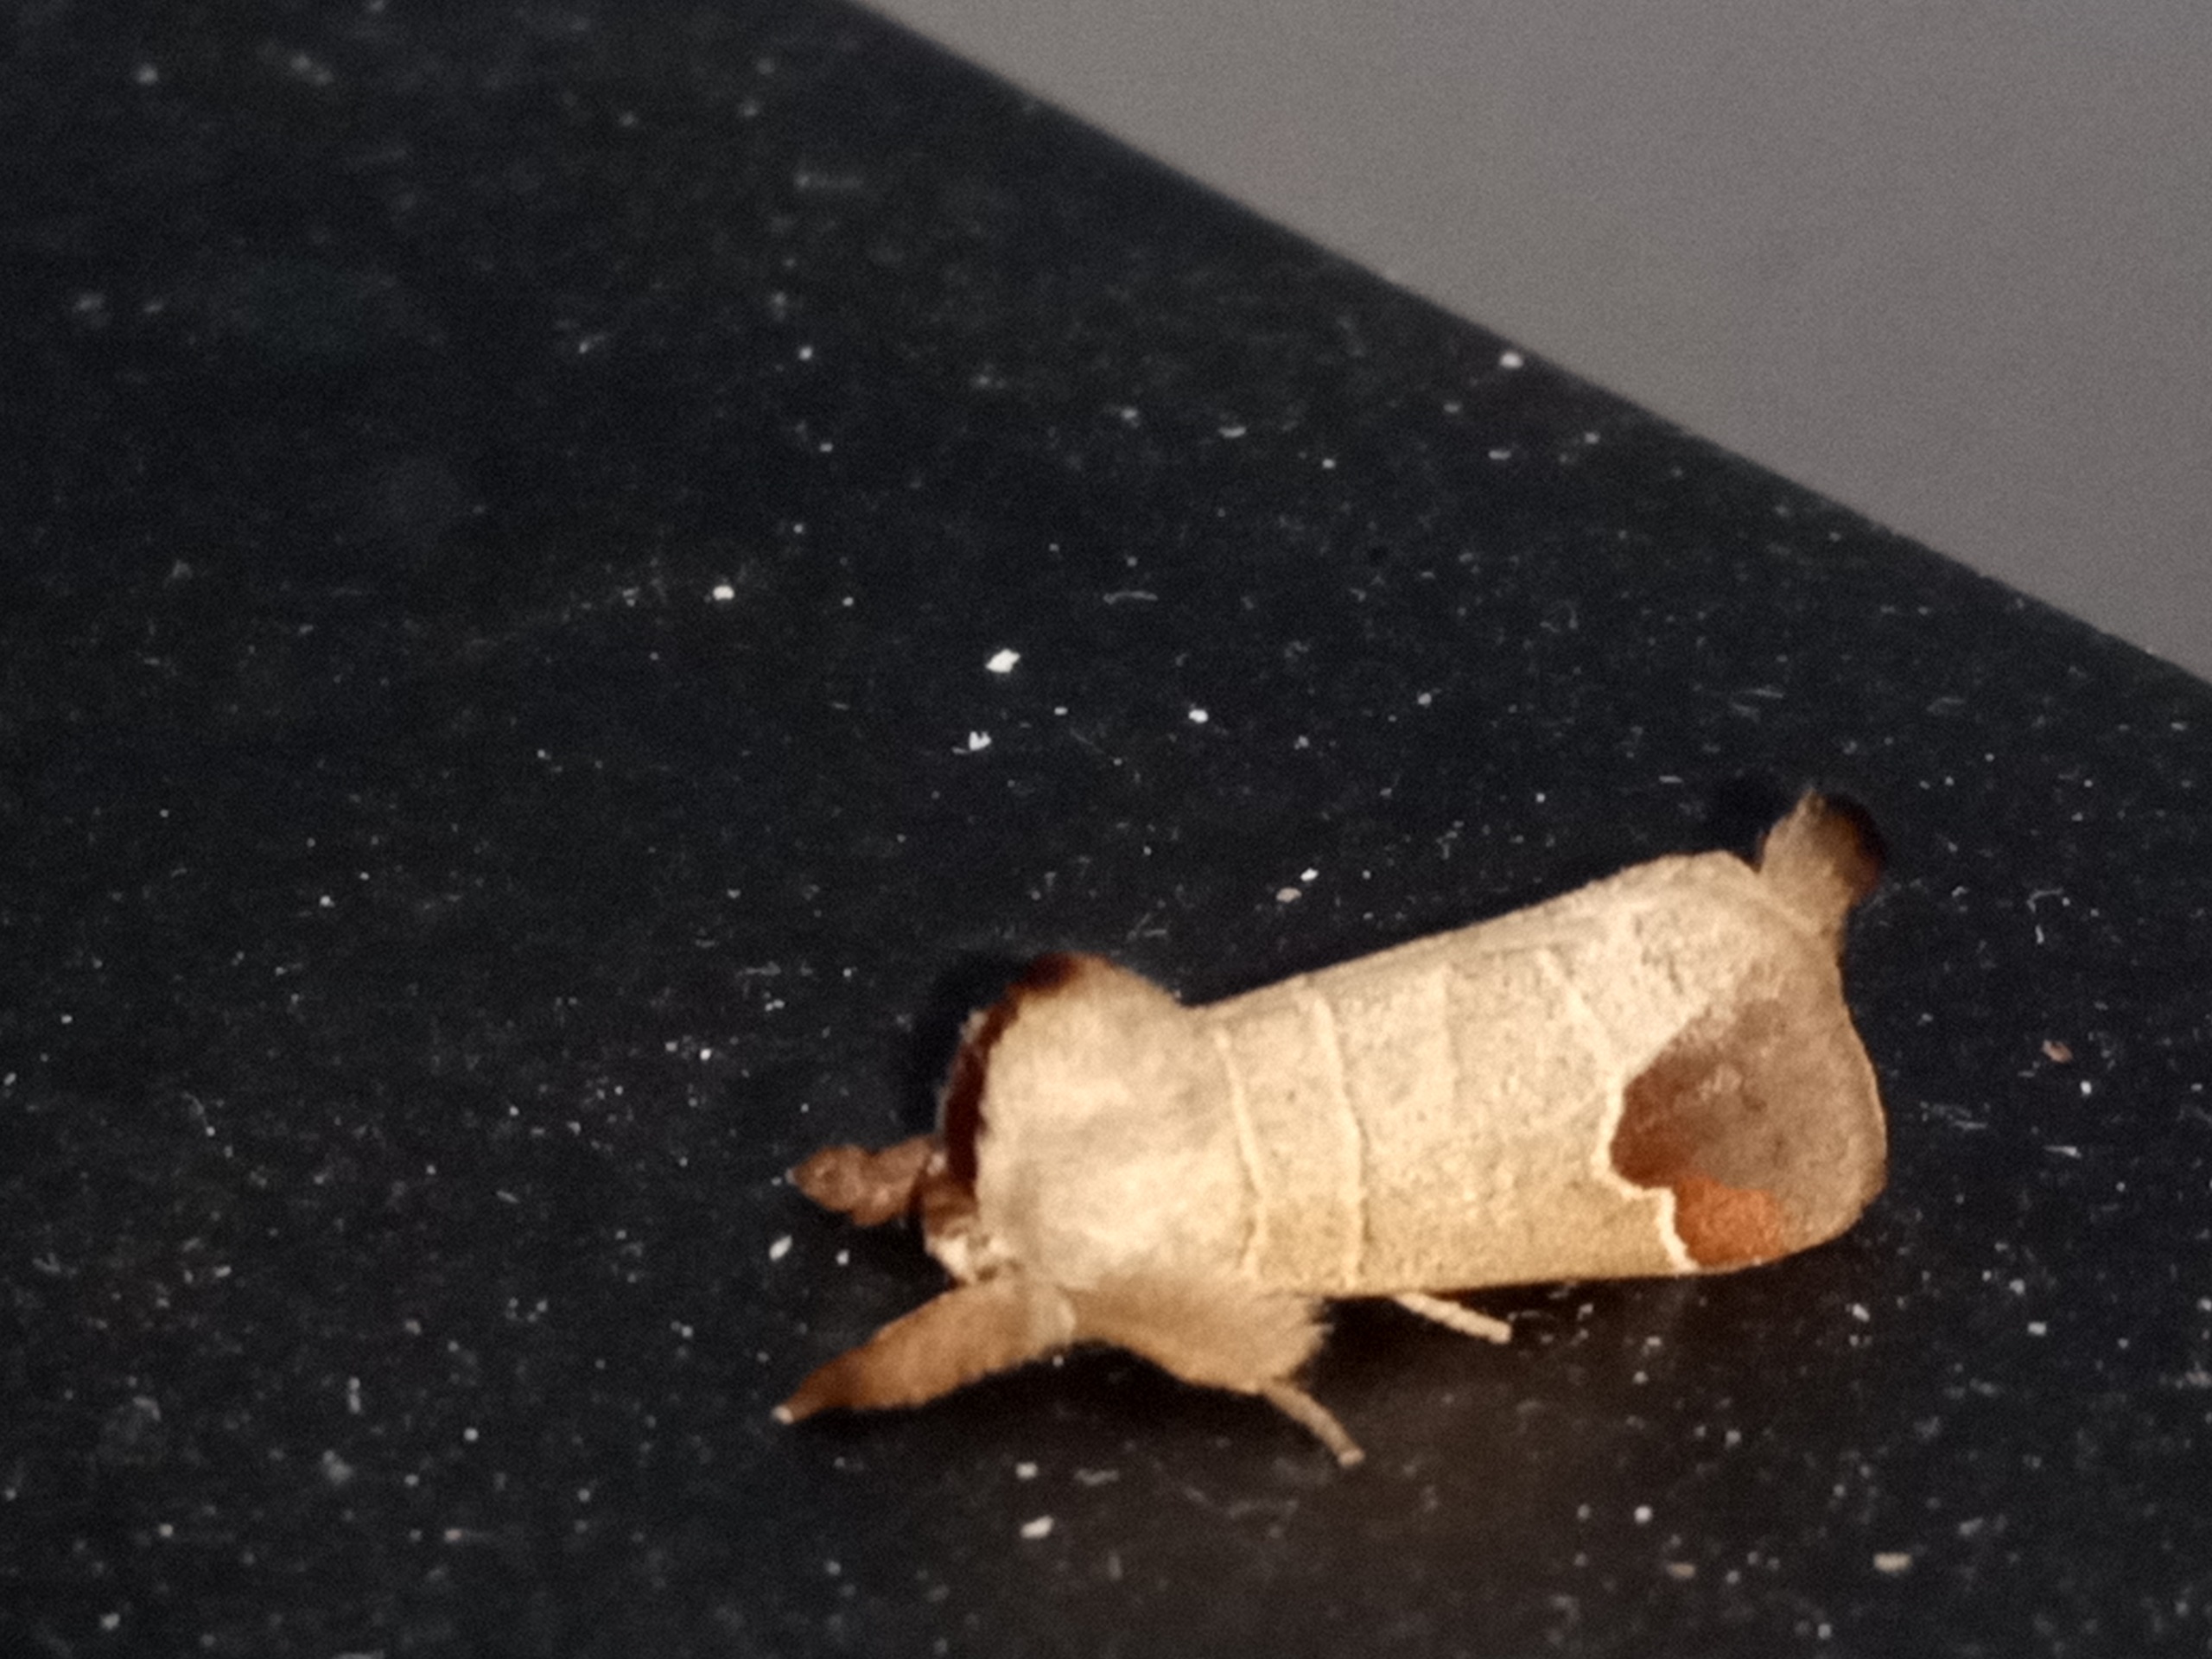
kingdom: Animalia
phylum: Arthropoda
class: Insecta
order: Lepidoptera
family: Notodontidae
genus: Clostera
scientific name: Clostera curtula
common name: Lille måneplet
